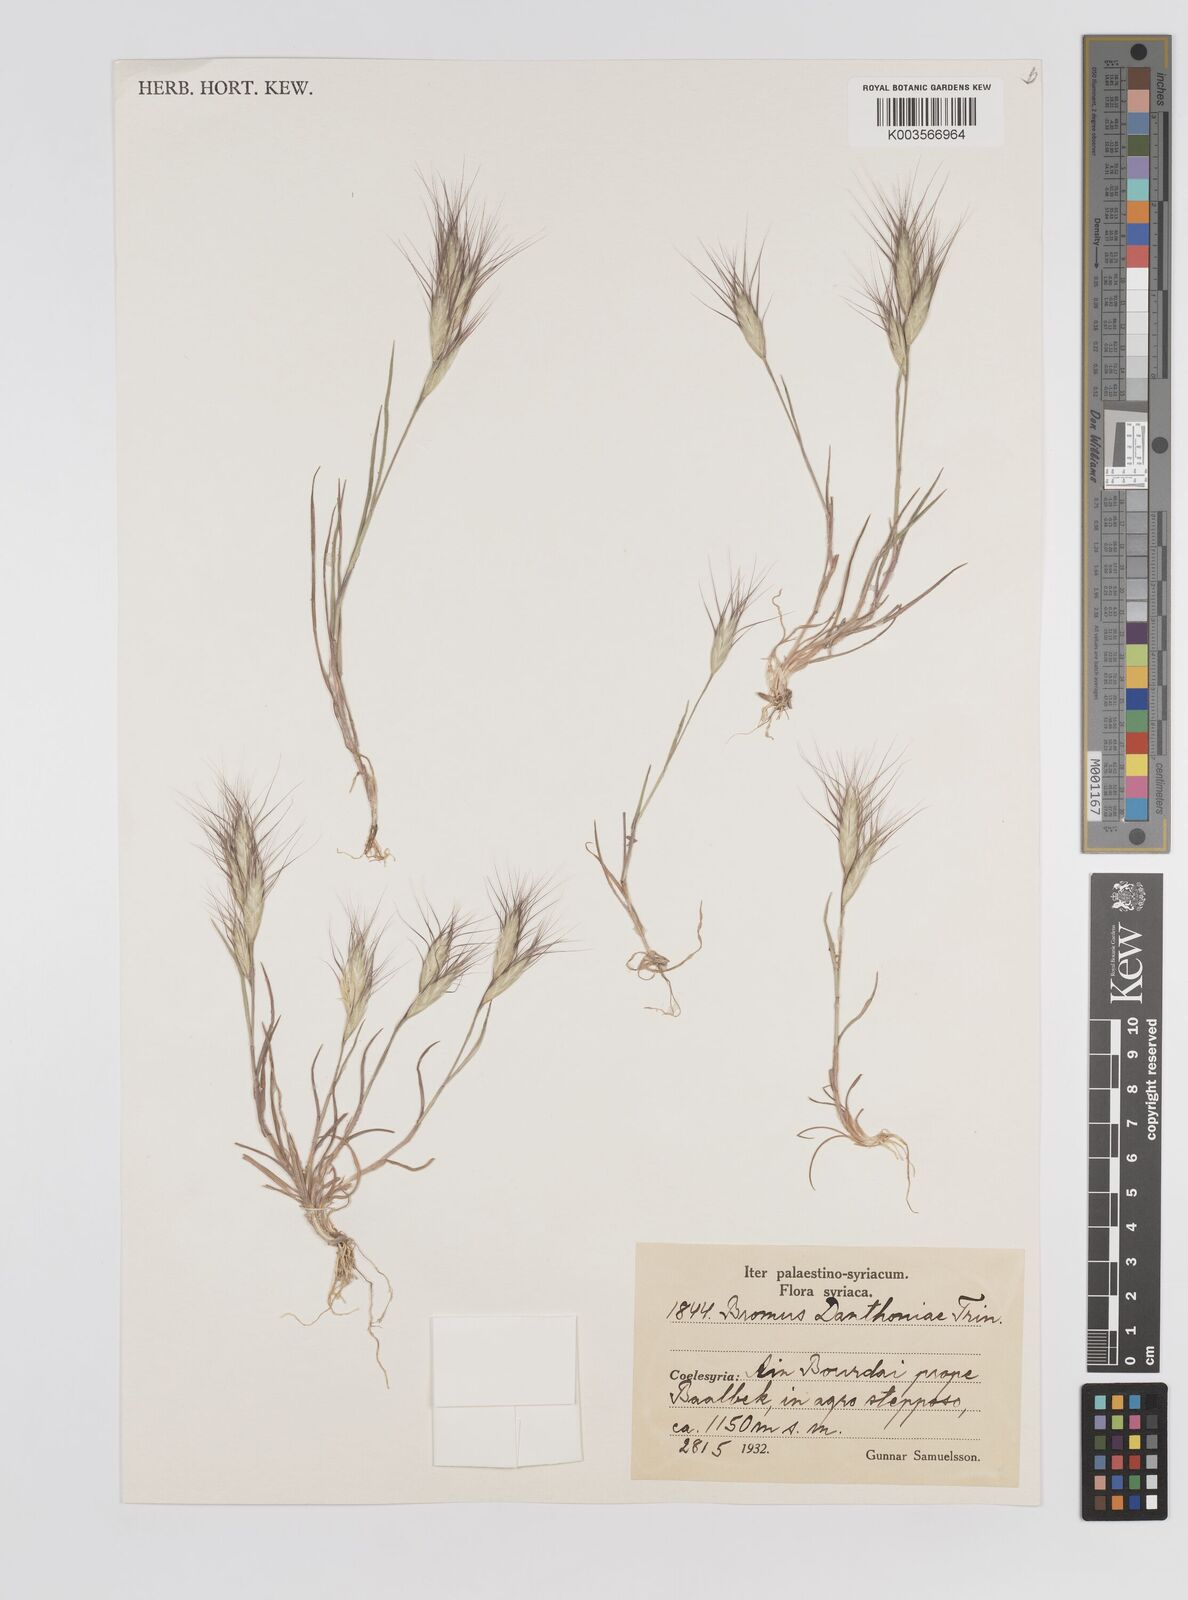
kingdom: Plantae
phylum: Tracheophyta
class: Liliopsida
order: Poales
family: Poaceae
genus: Bromus
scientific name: Bromus danthoniae
